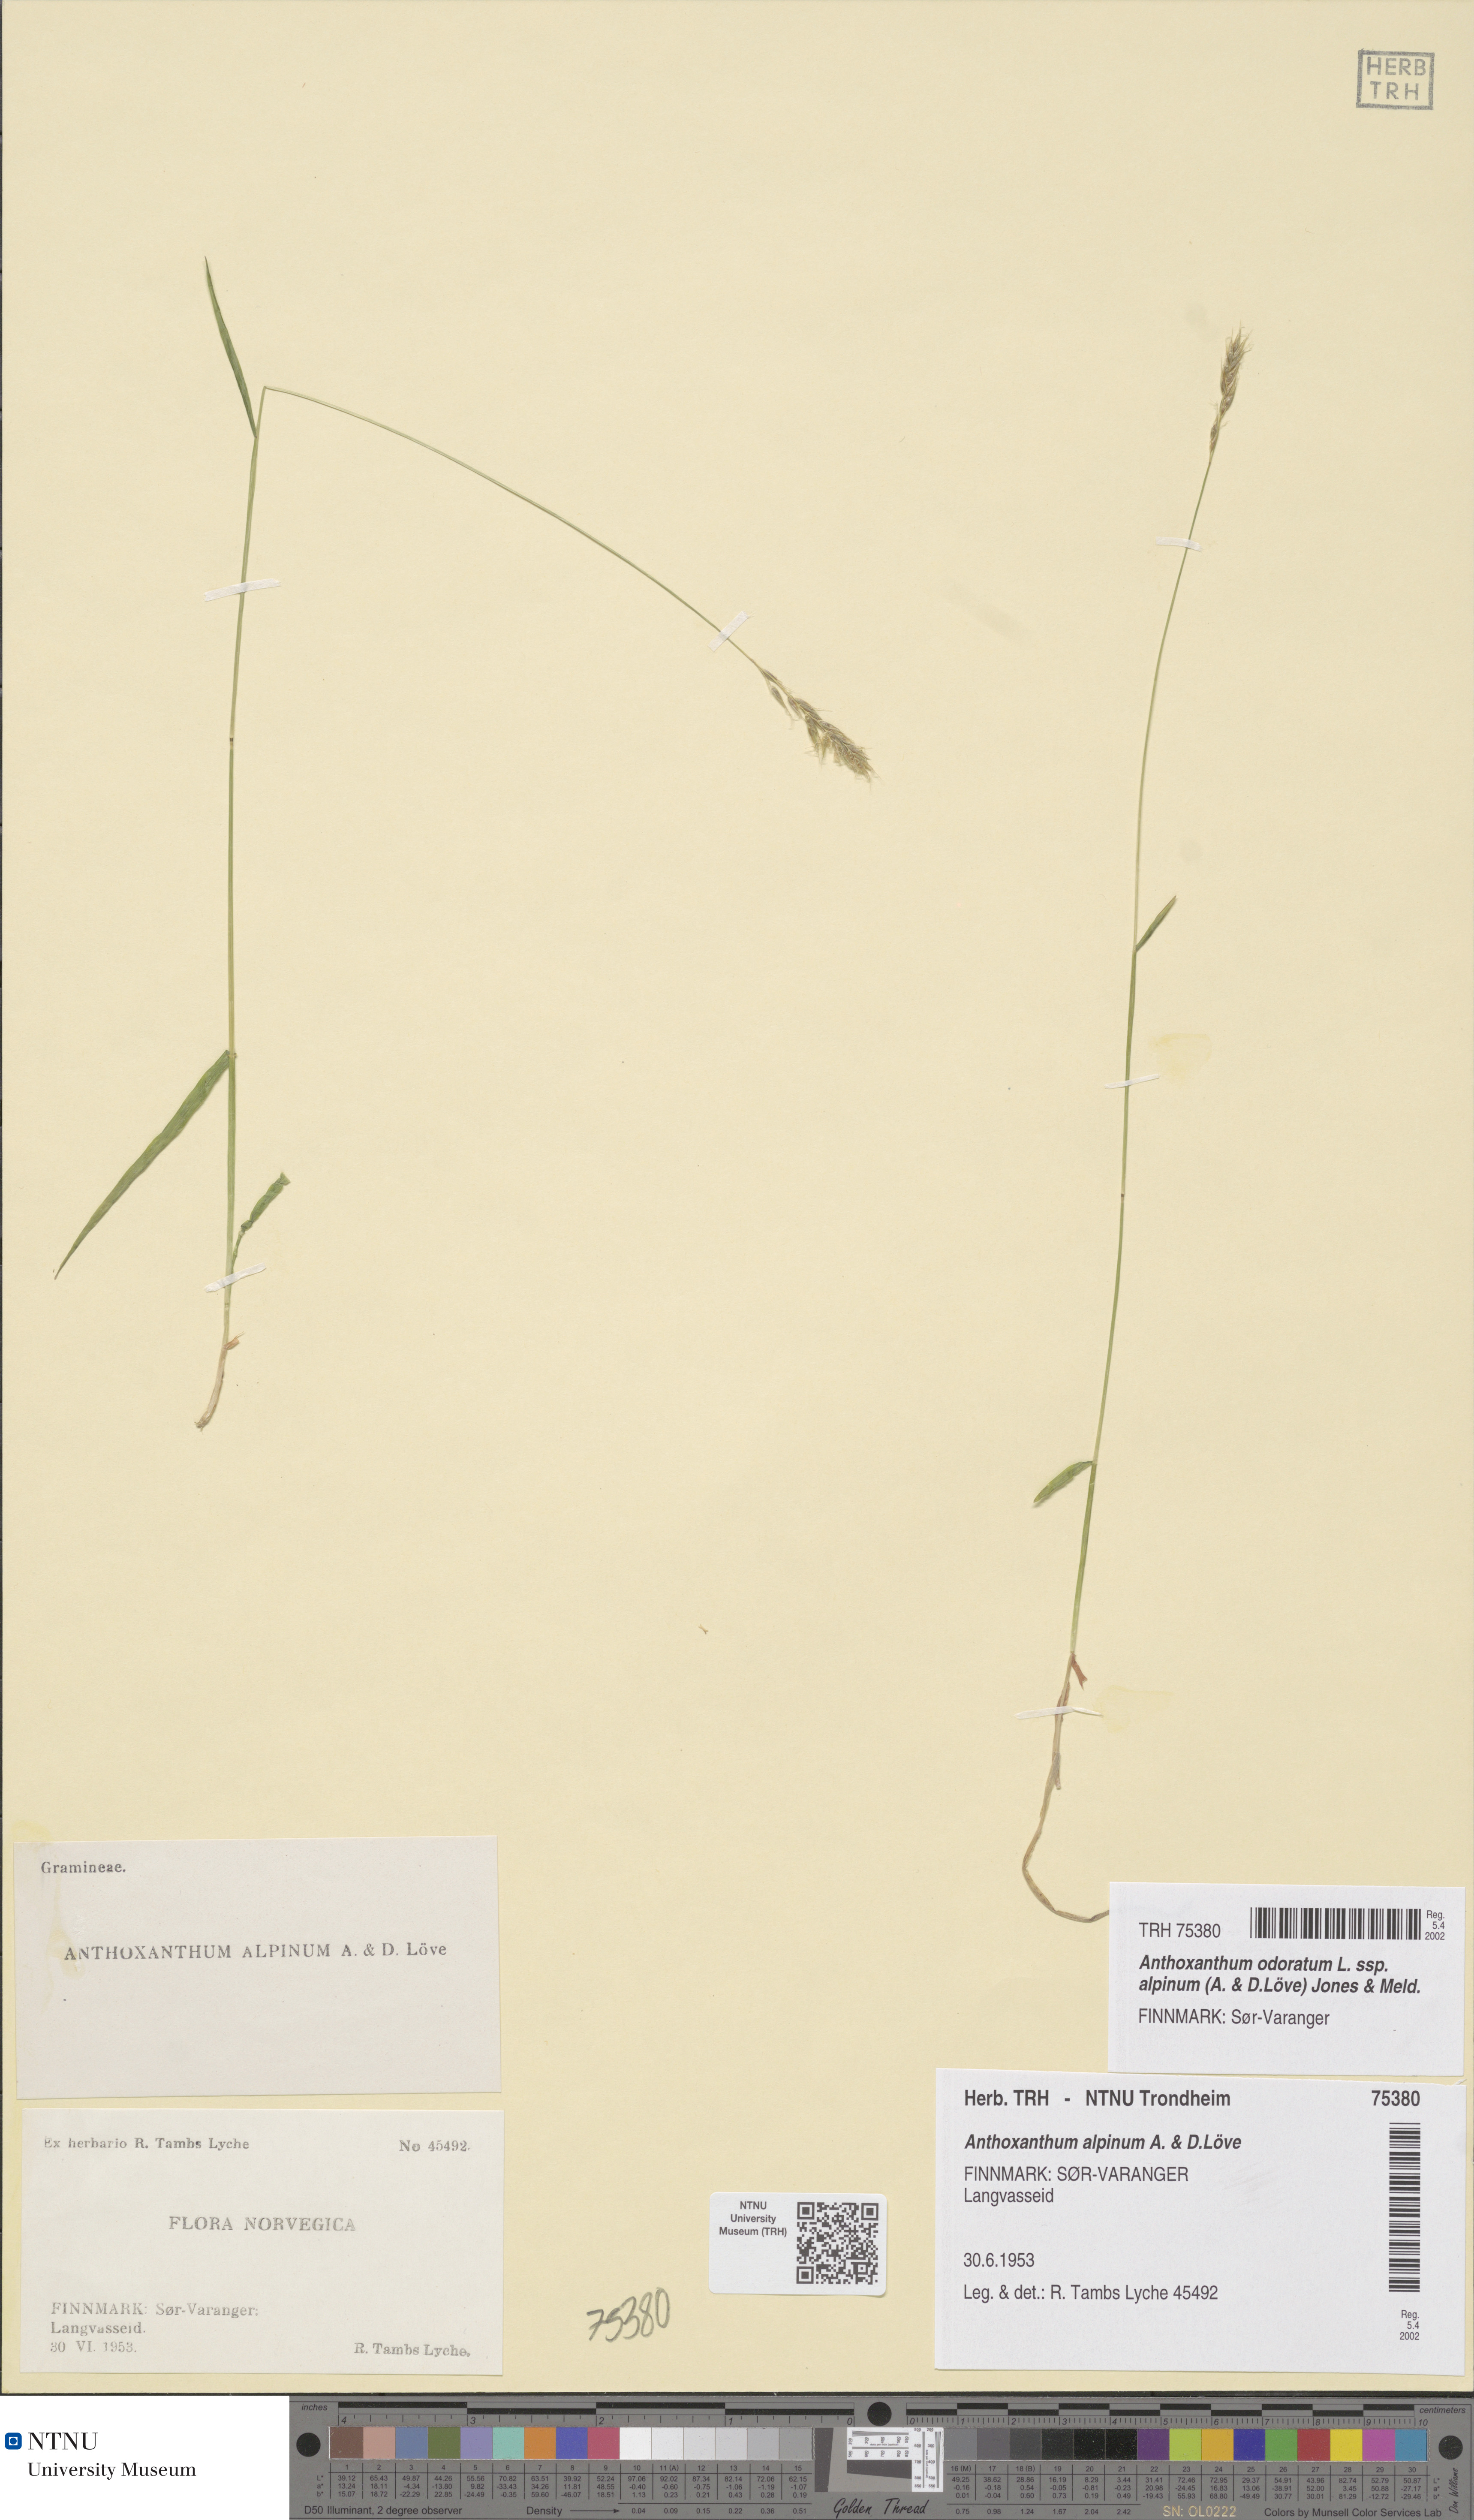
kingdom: Plantae
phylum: Tracheophyta
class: Liliopsida
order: Poales
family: Poaceae
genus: Anthoxanthum
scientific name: Anthoxanthum nipponicum
